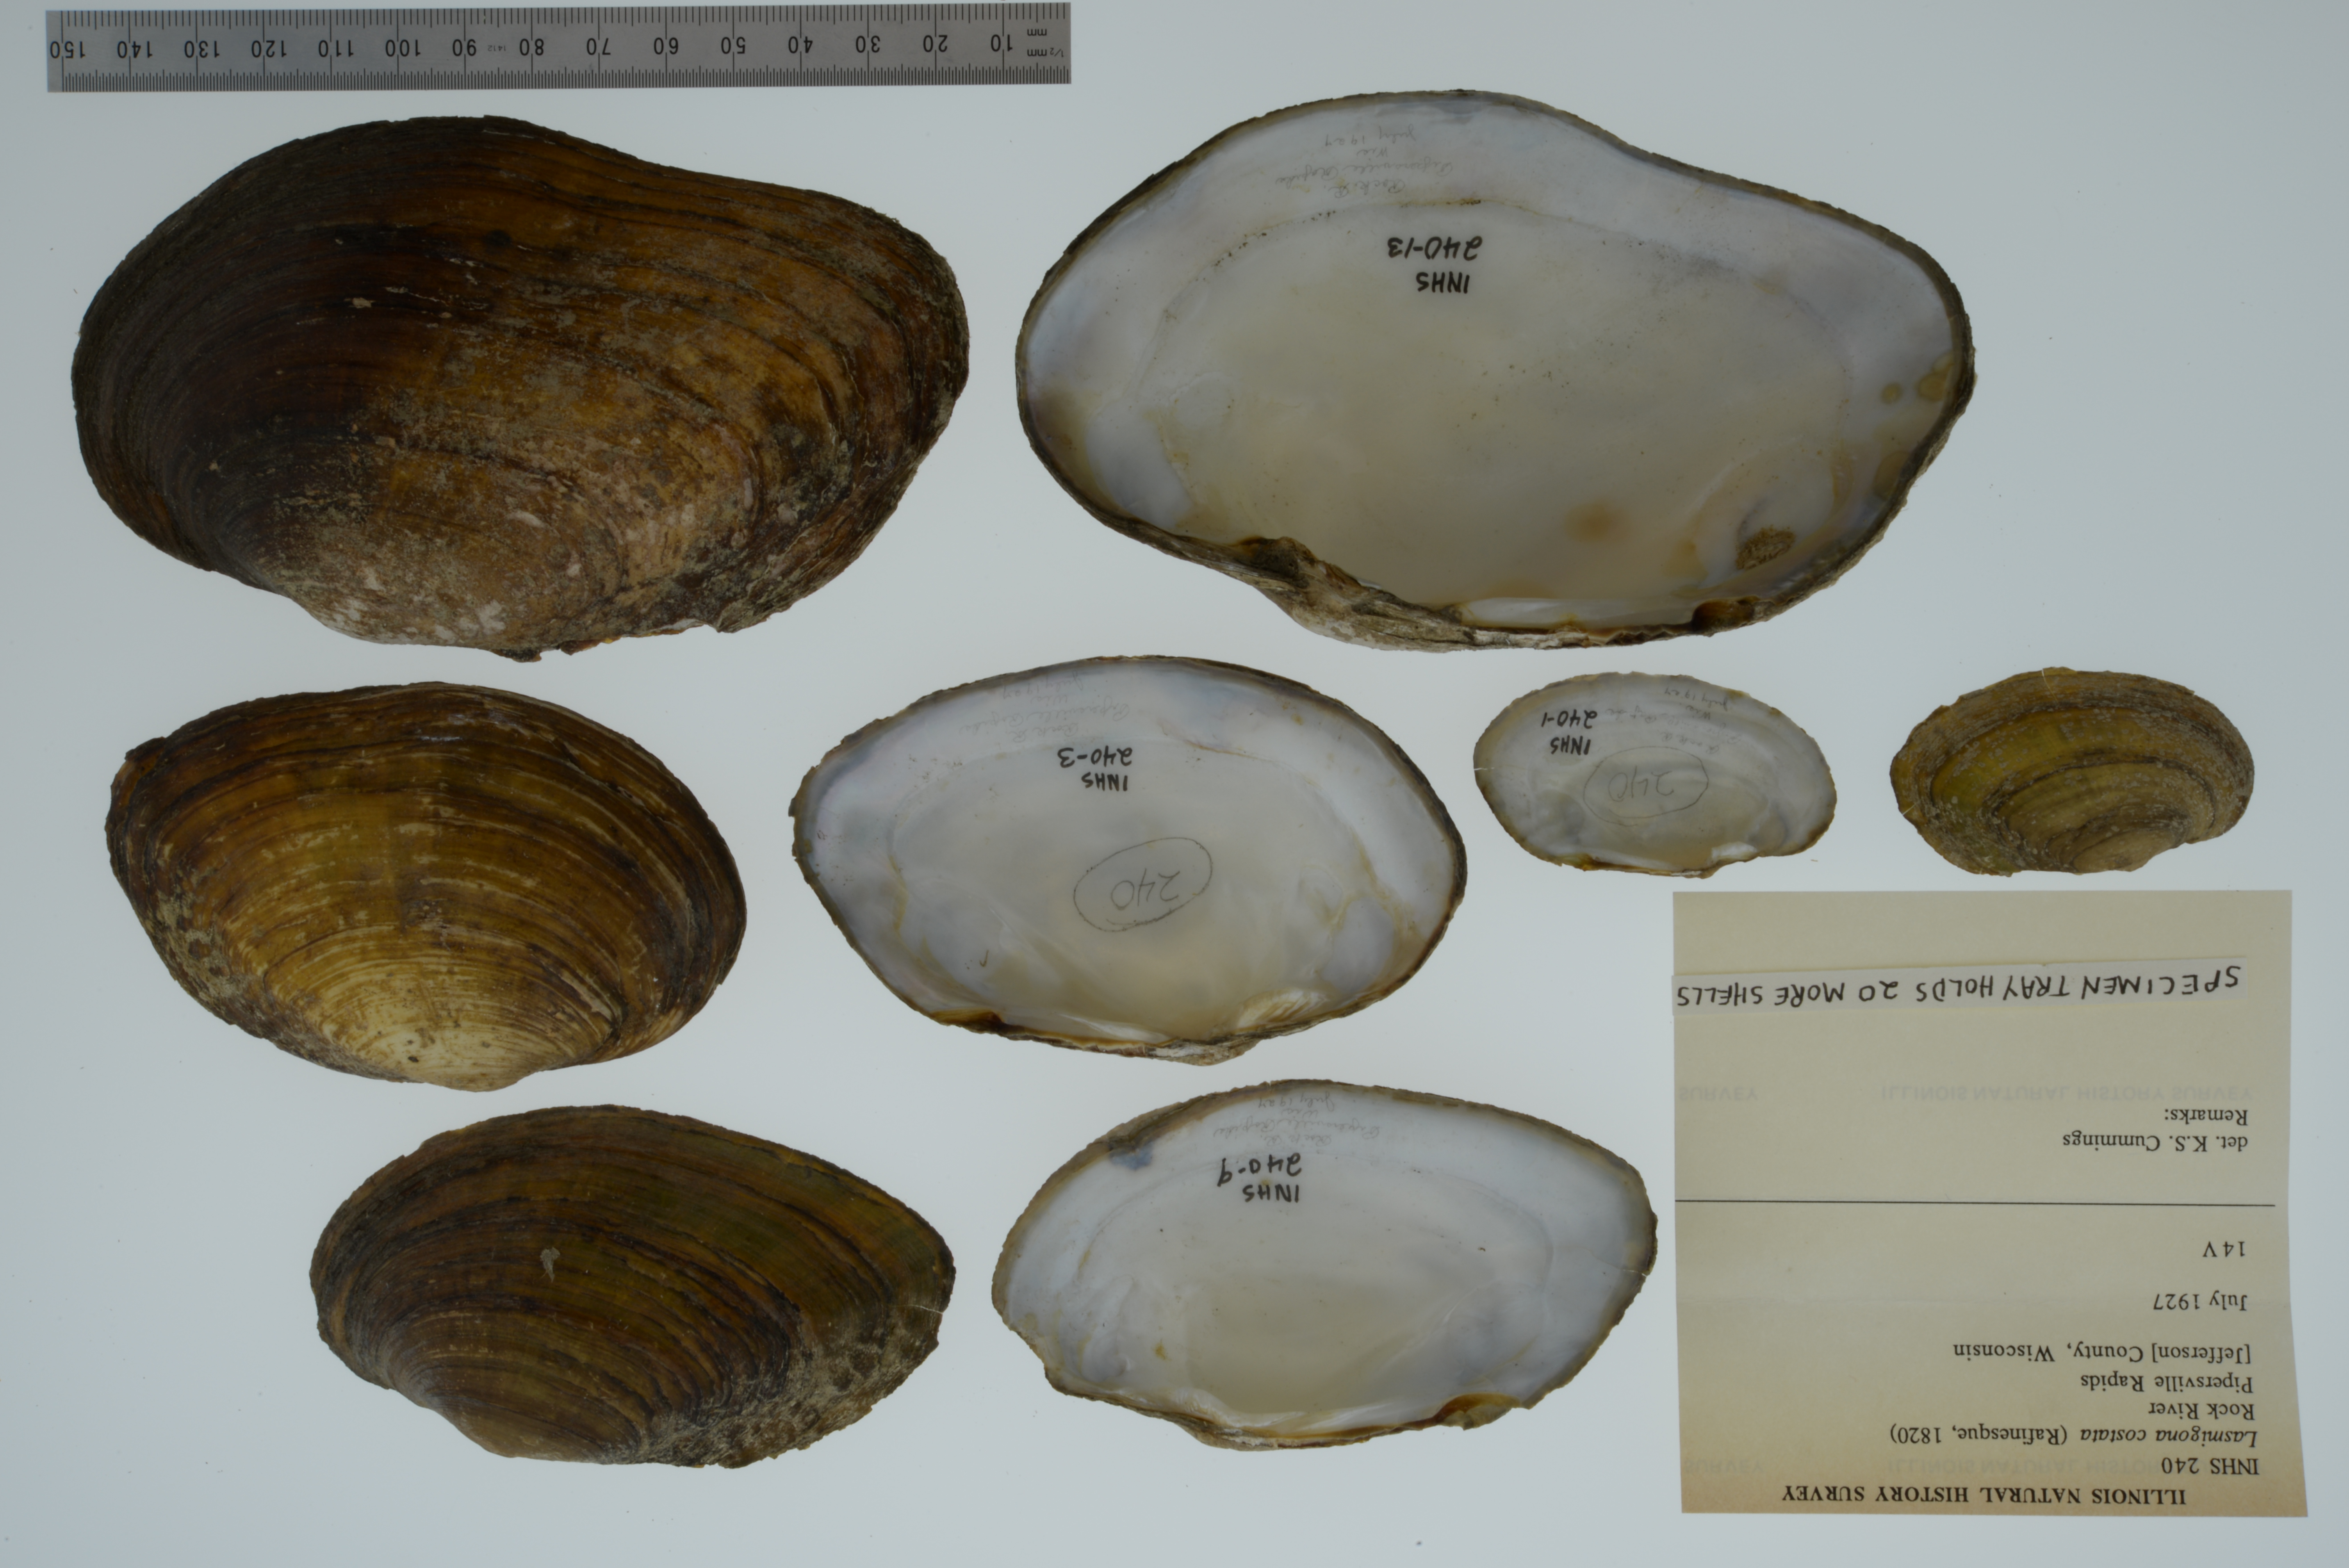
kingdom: Animalia
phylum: Mollusca
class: Bivalvia
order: Unionida
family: Unionidae
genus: Lasmigona
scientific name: Lasmigona costata
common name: Flutedshell
